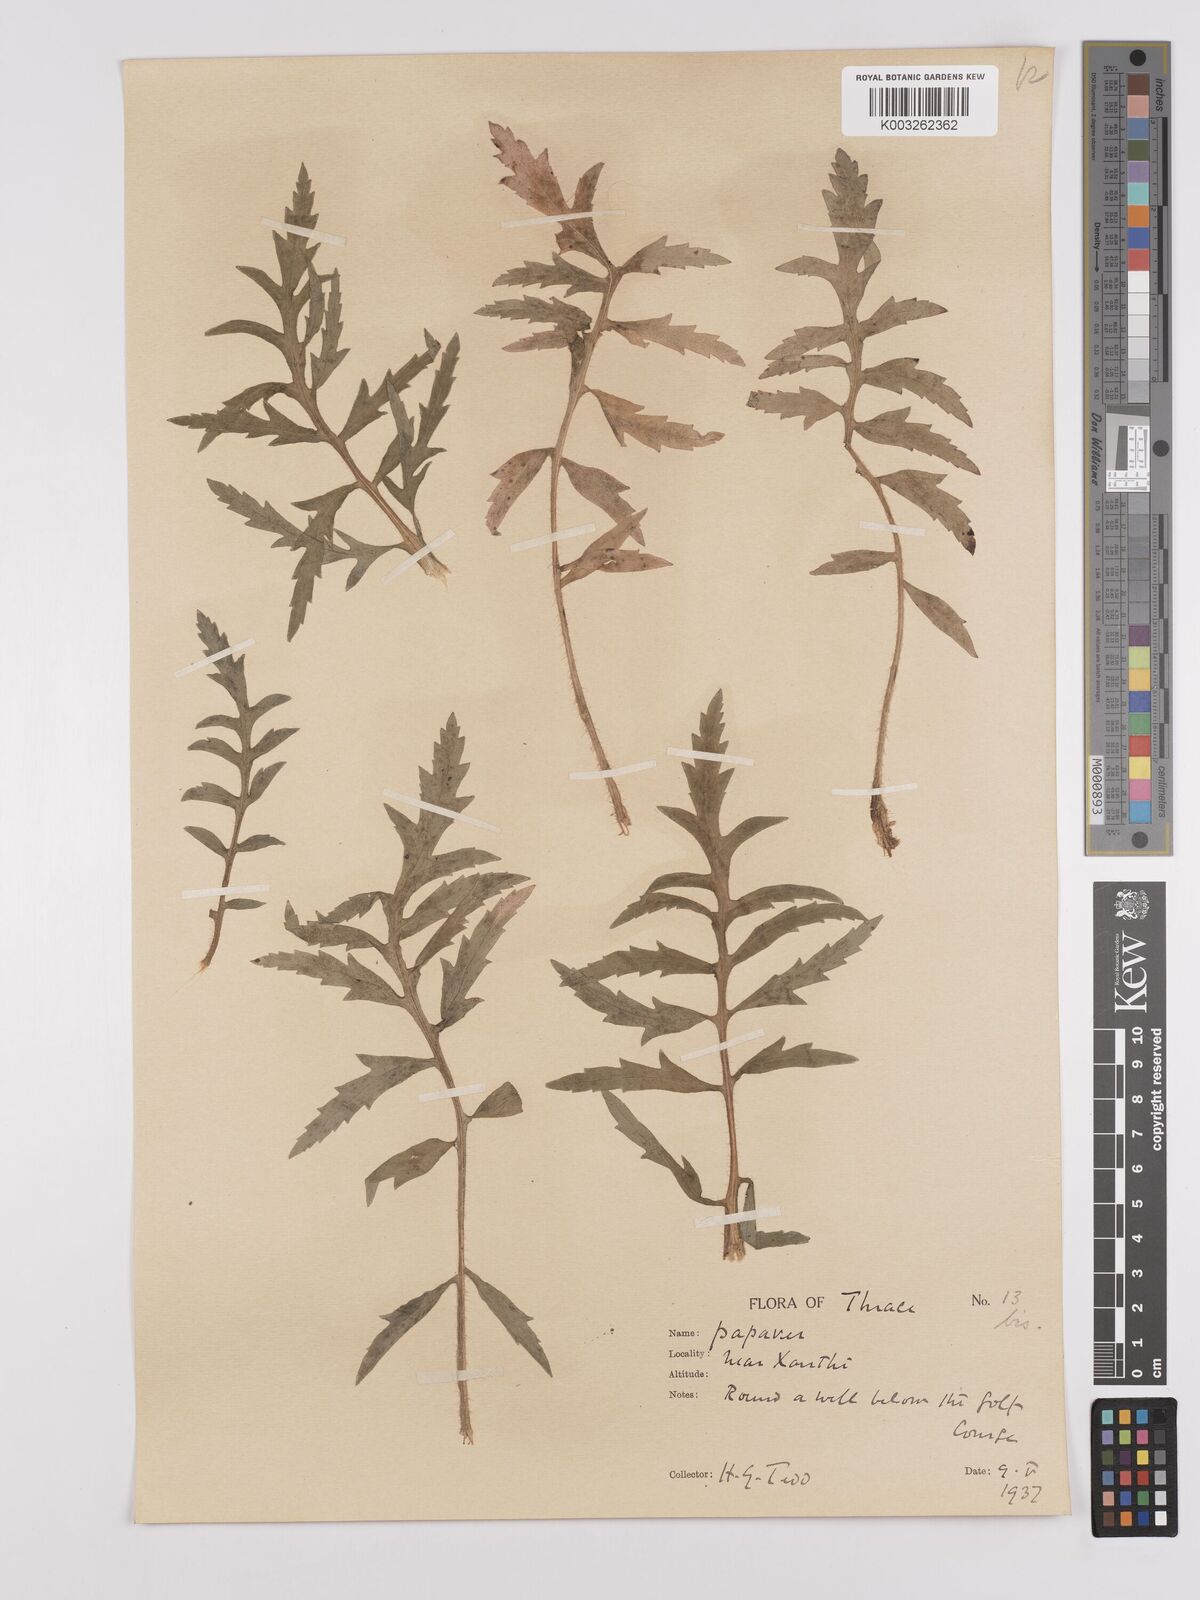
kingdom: Plantae
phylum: Tracheophyta
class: Magnoliopsida
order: Ranunculales
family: Papaveraceae
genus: Papaver
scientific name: Papaver rhoeas
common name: Corn poppy
